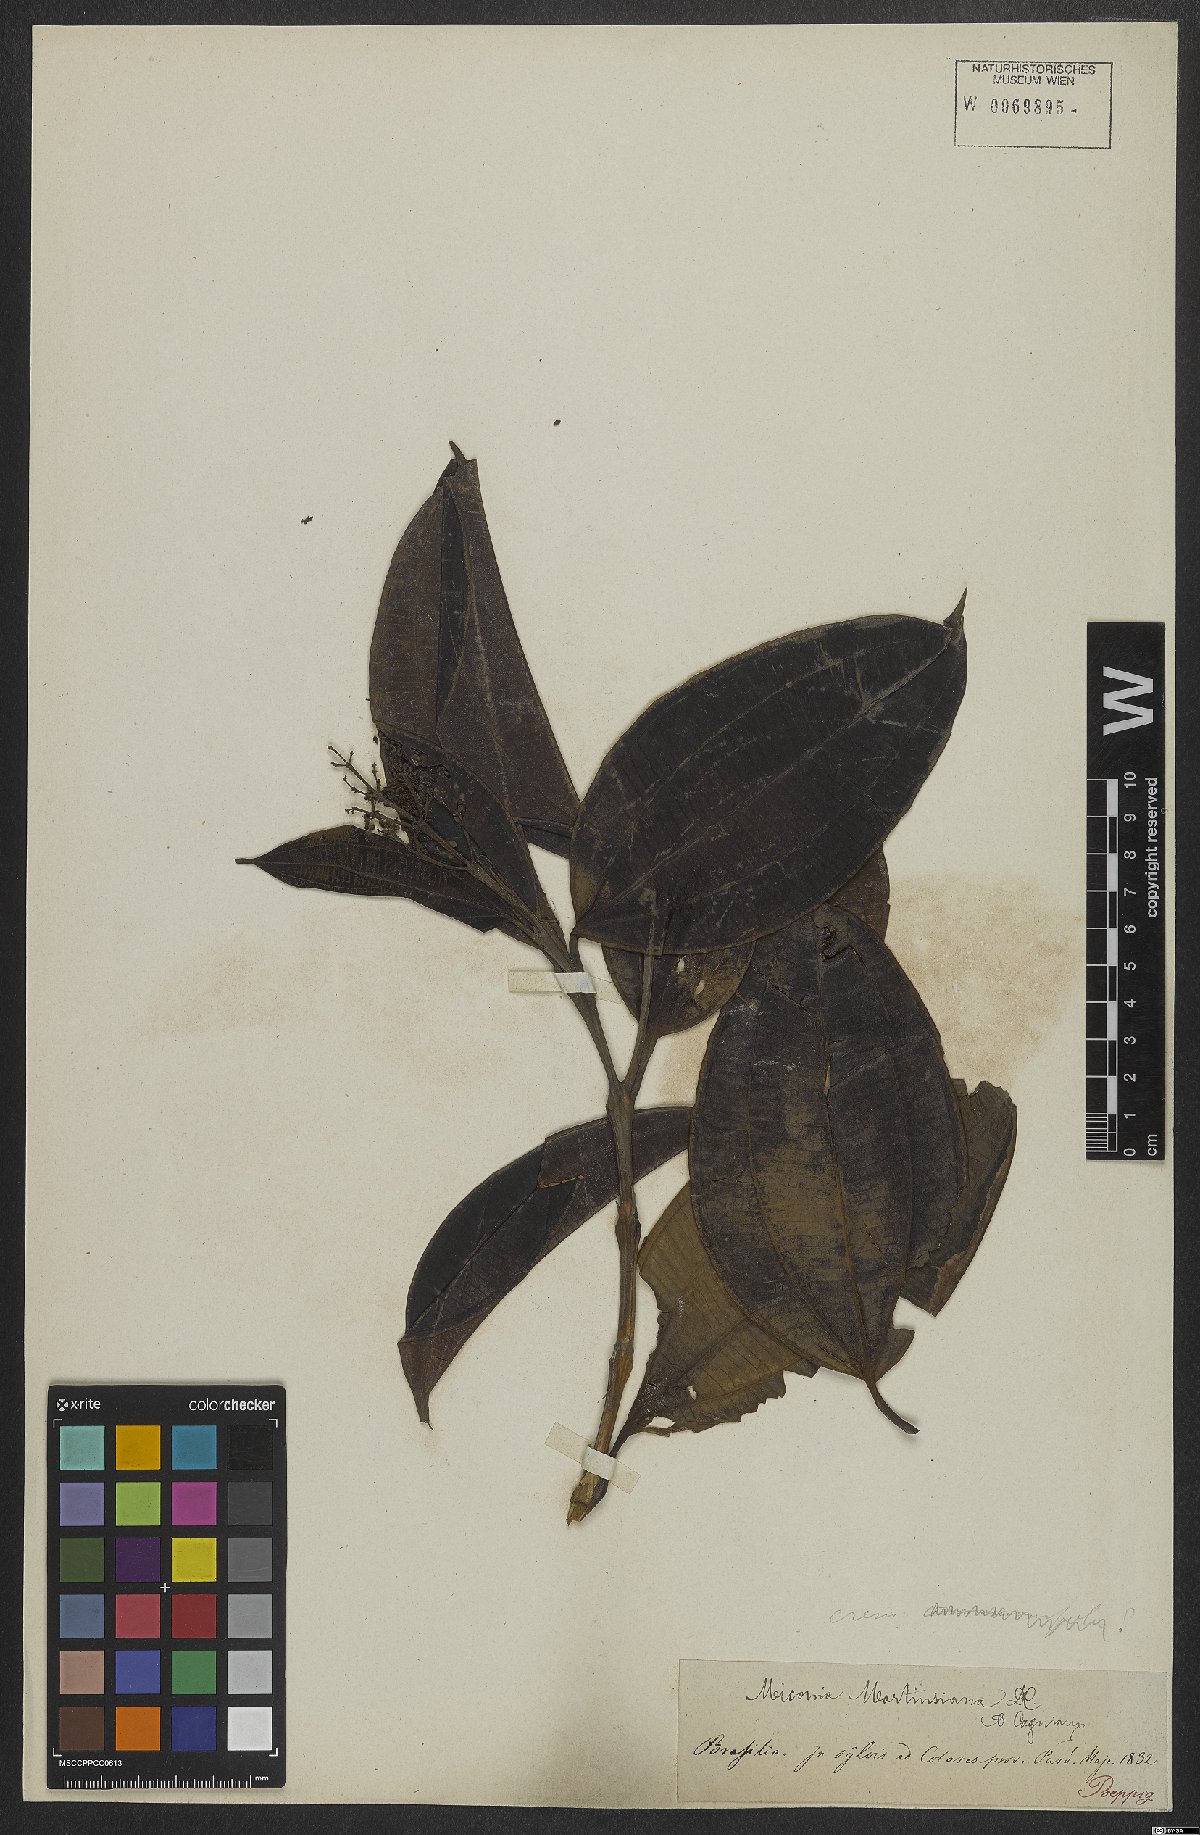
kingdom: Plantae
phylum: Tracheophyta
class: Magnoliopsida
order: Myrtales
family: Melastomataceae
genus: Miconia
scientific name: Miconia cinnamomifolia
